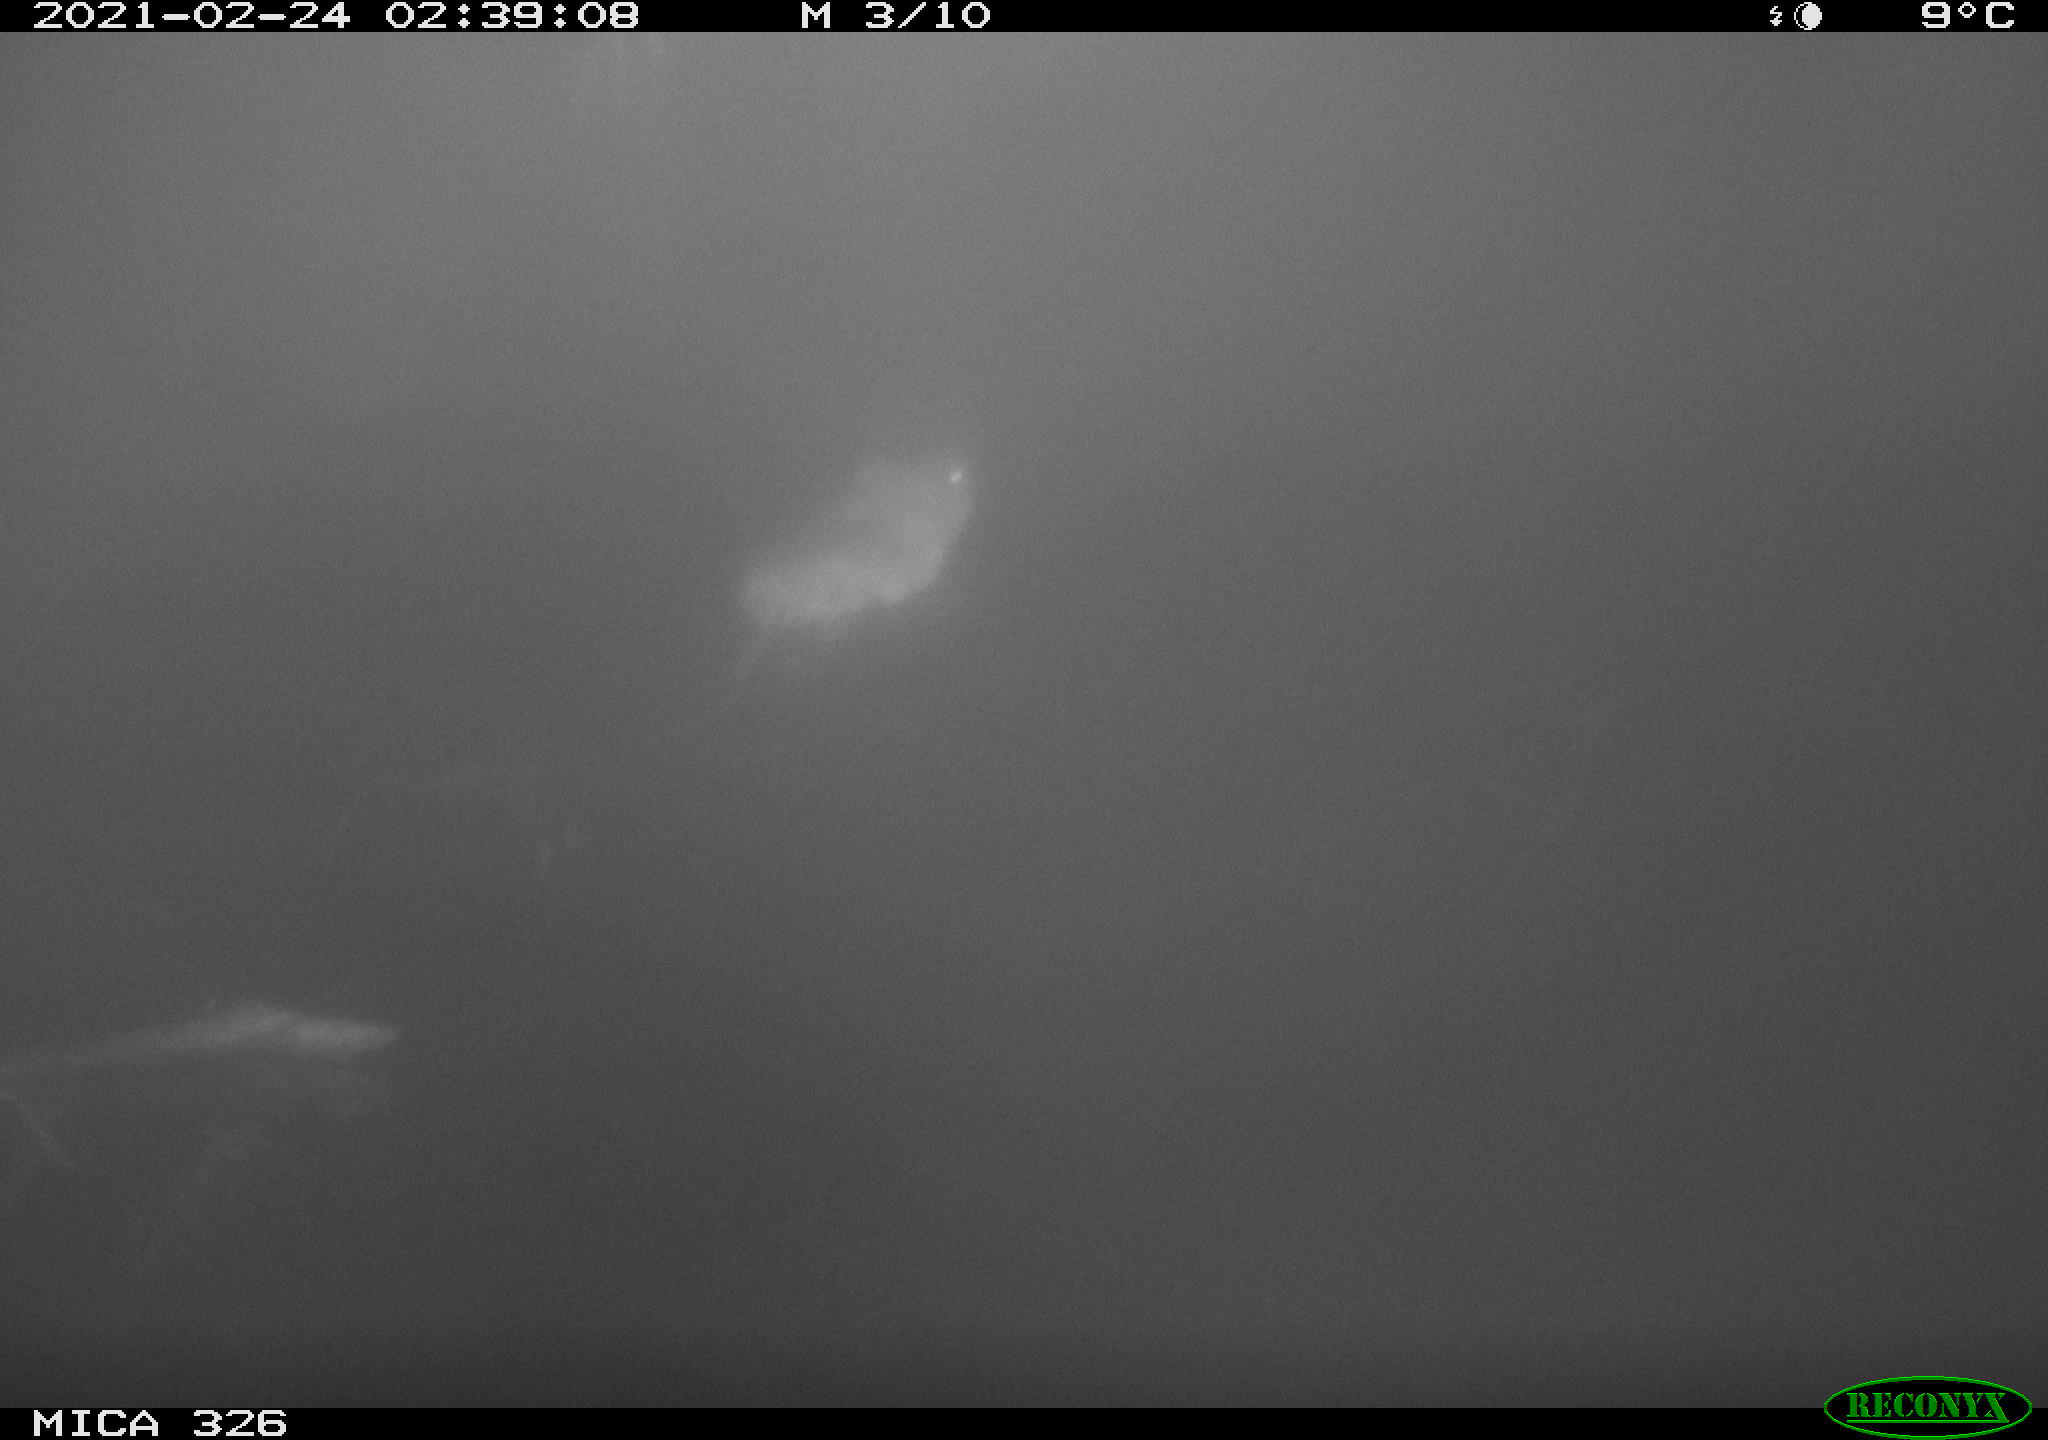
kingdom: Animalia
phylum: Chordata
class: Mammalia
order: Rodentia
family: Cricetidae
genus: Ondatra
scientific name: Ondatra zibethicus
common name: Muskrat
